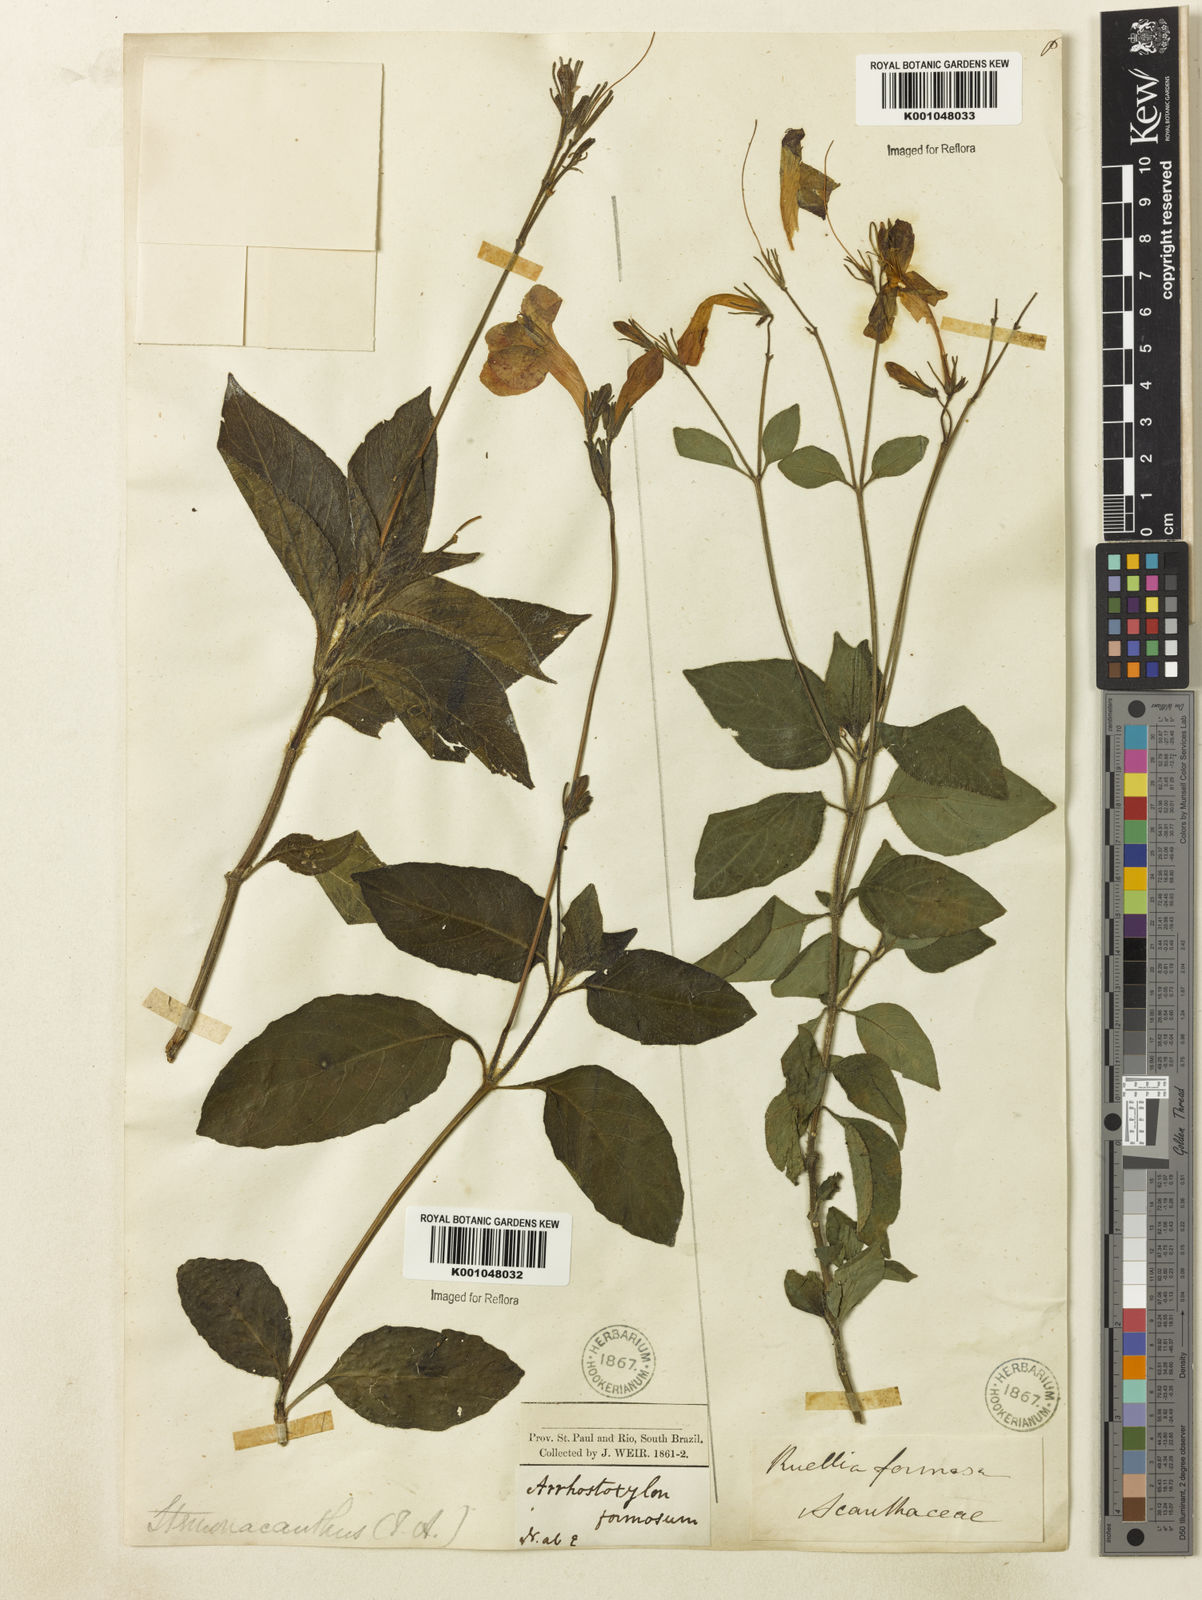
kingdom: Plantae
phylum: Tracheophyta
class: Magnoliopsida
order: Lamiales
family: Acanthaceae
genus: Ruellia
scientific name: Ruellia elegans
